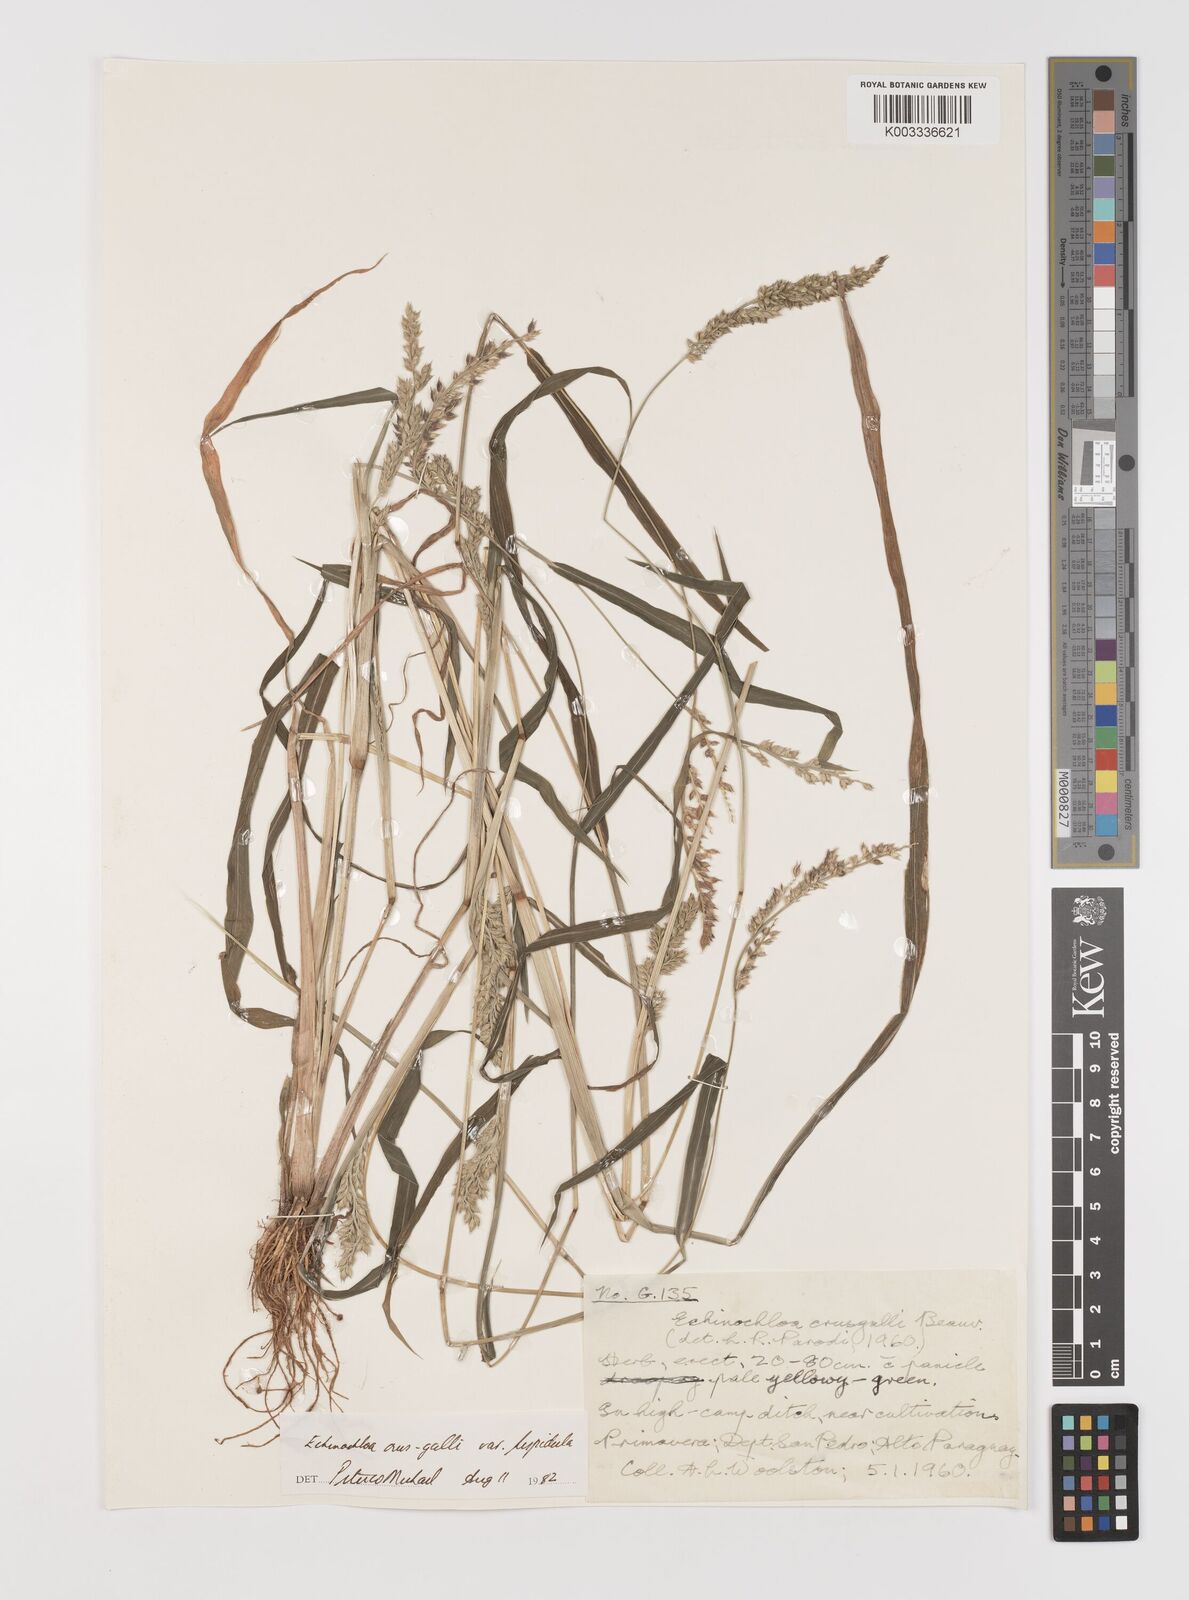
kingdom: Plantae
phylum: Tracheophyta
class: Liliopsida
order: Poales
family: Poaceae
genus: Echinochloa
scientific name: Echinochloa crus-galli
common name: Cockspur
